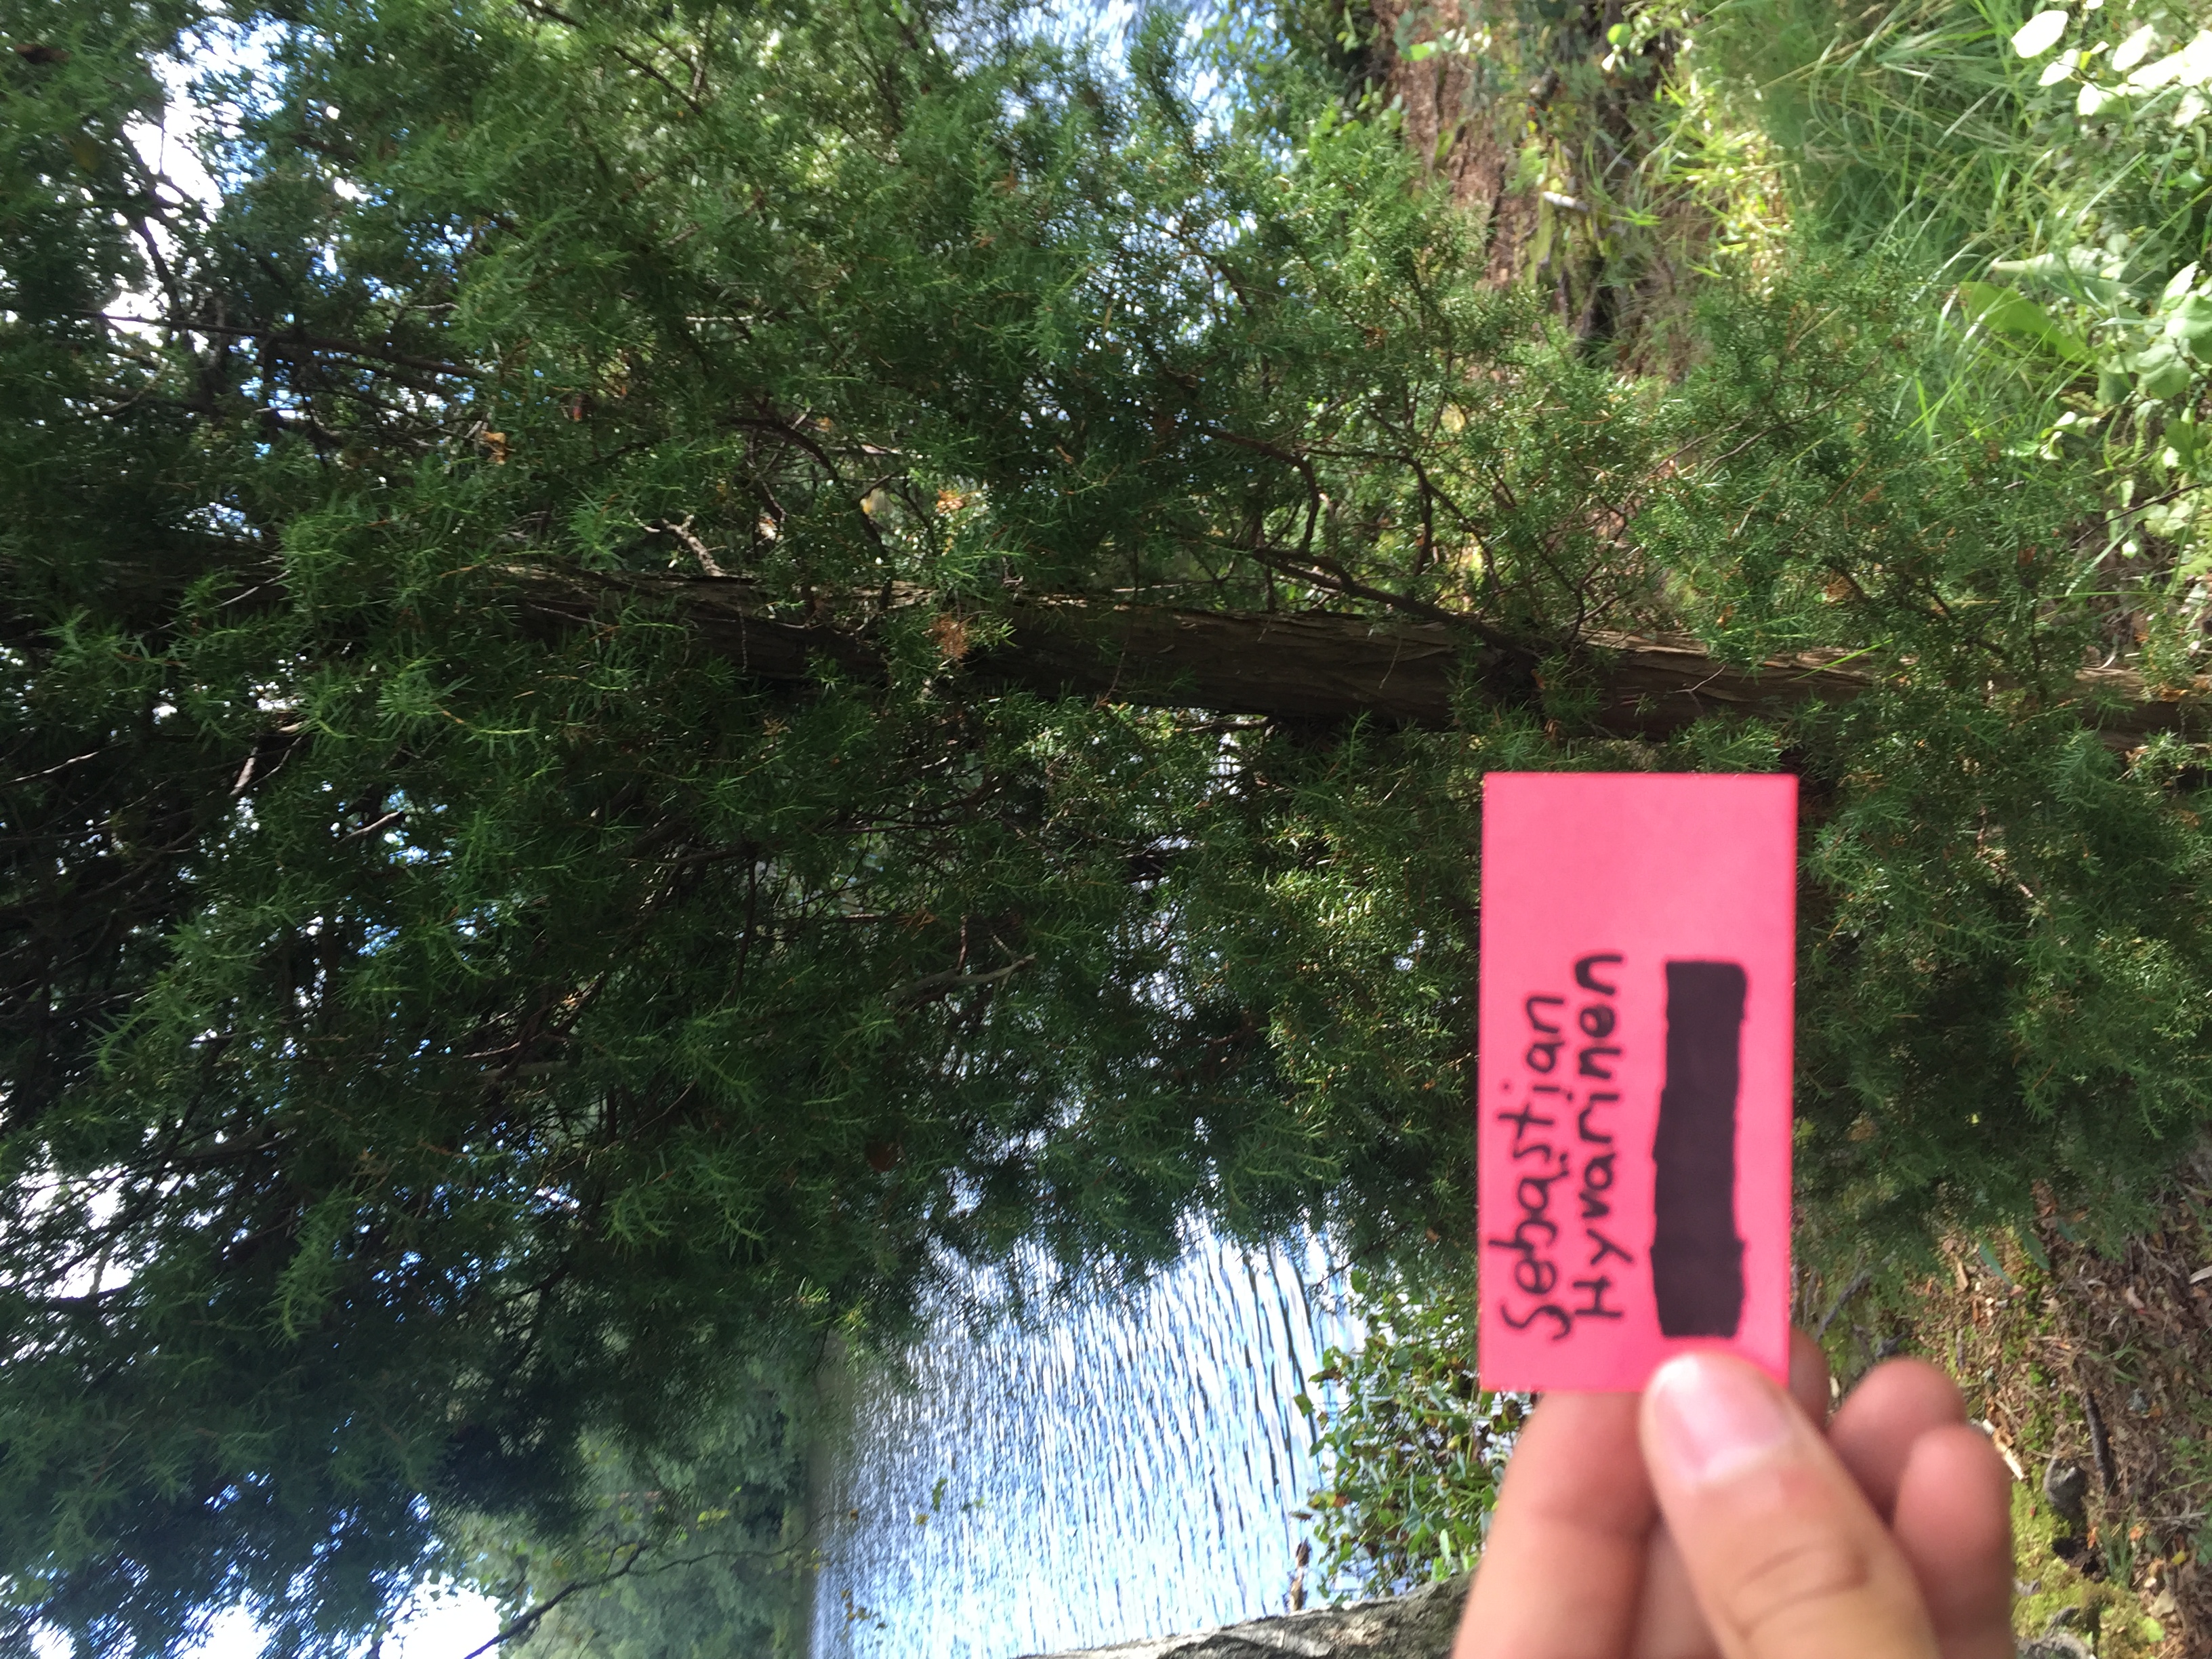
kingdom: Plantae
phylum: Tracheophyta
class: Pinopsida
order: Pinales
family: Cupressaceae
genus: Juniperus
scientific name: Juniperus communis
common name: Common juniper
